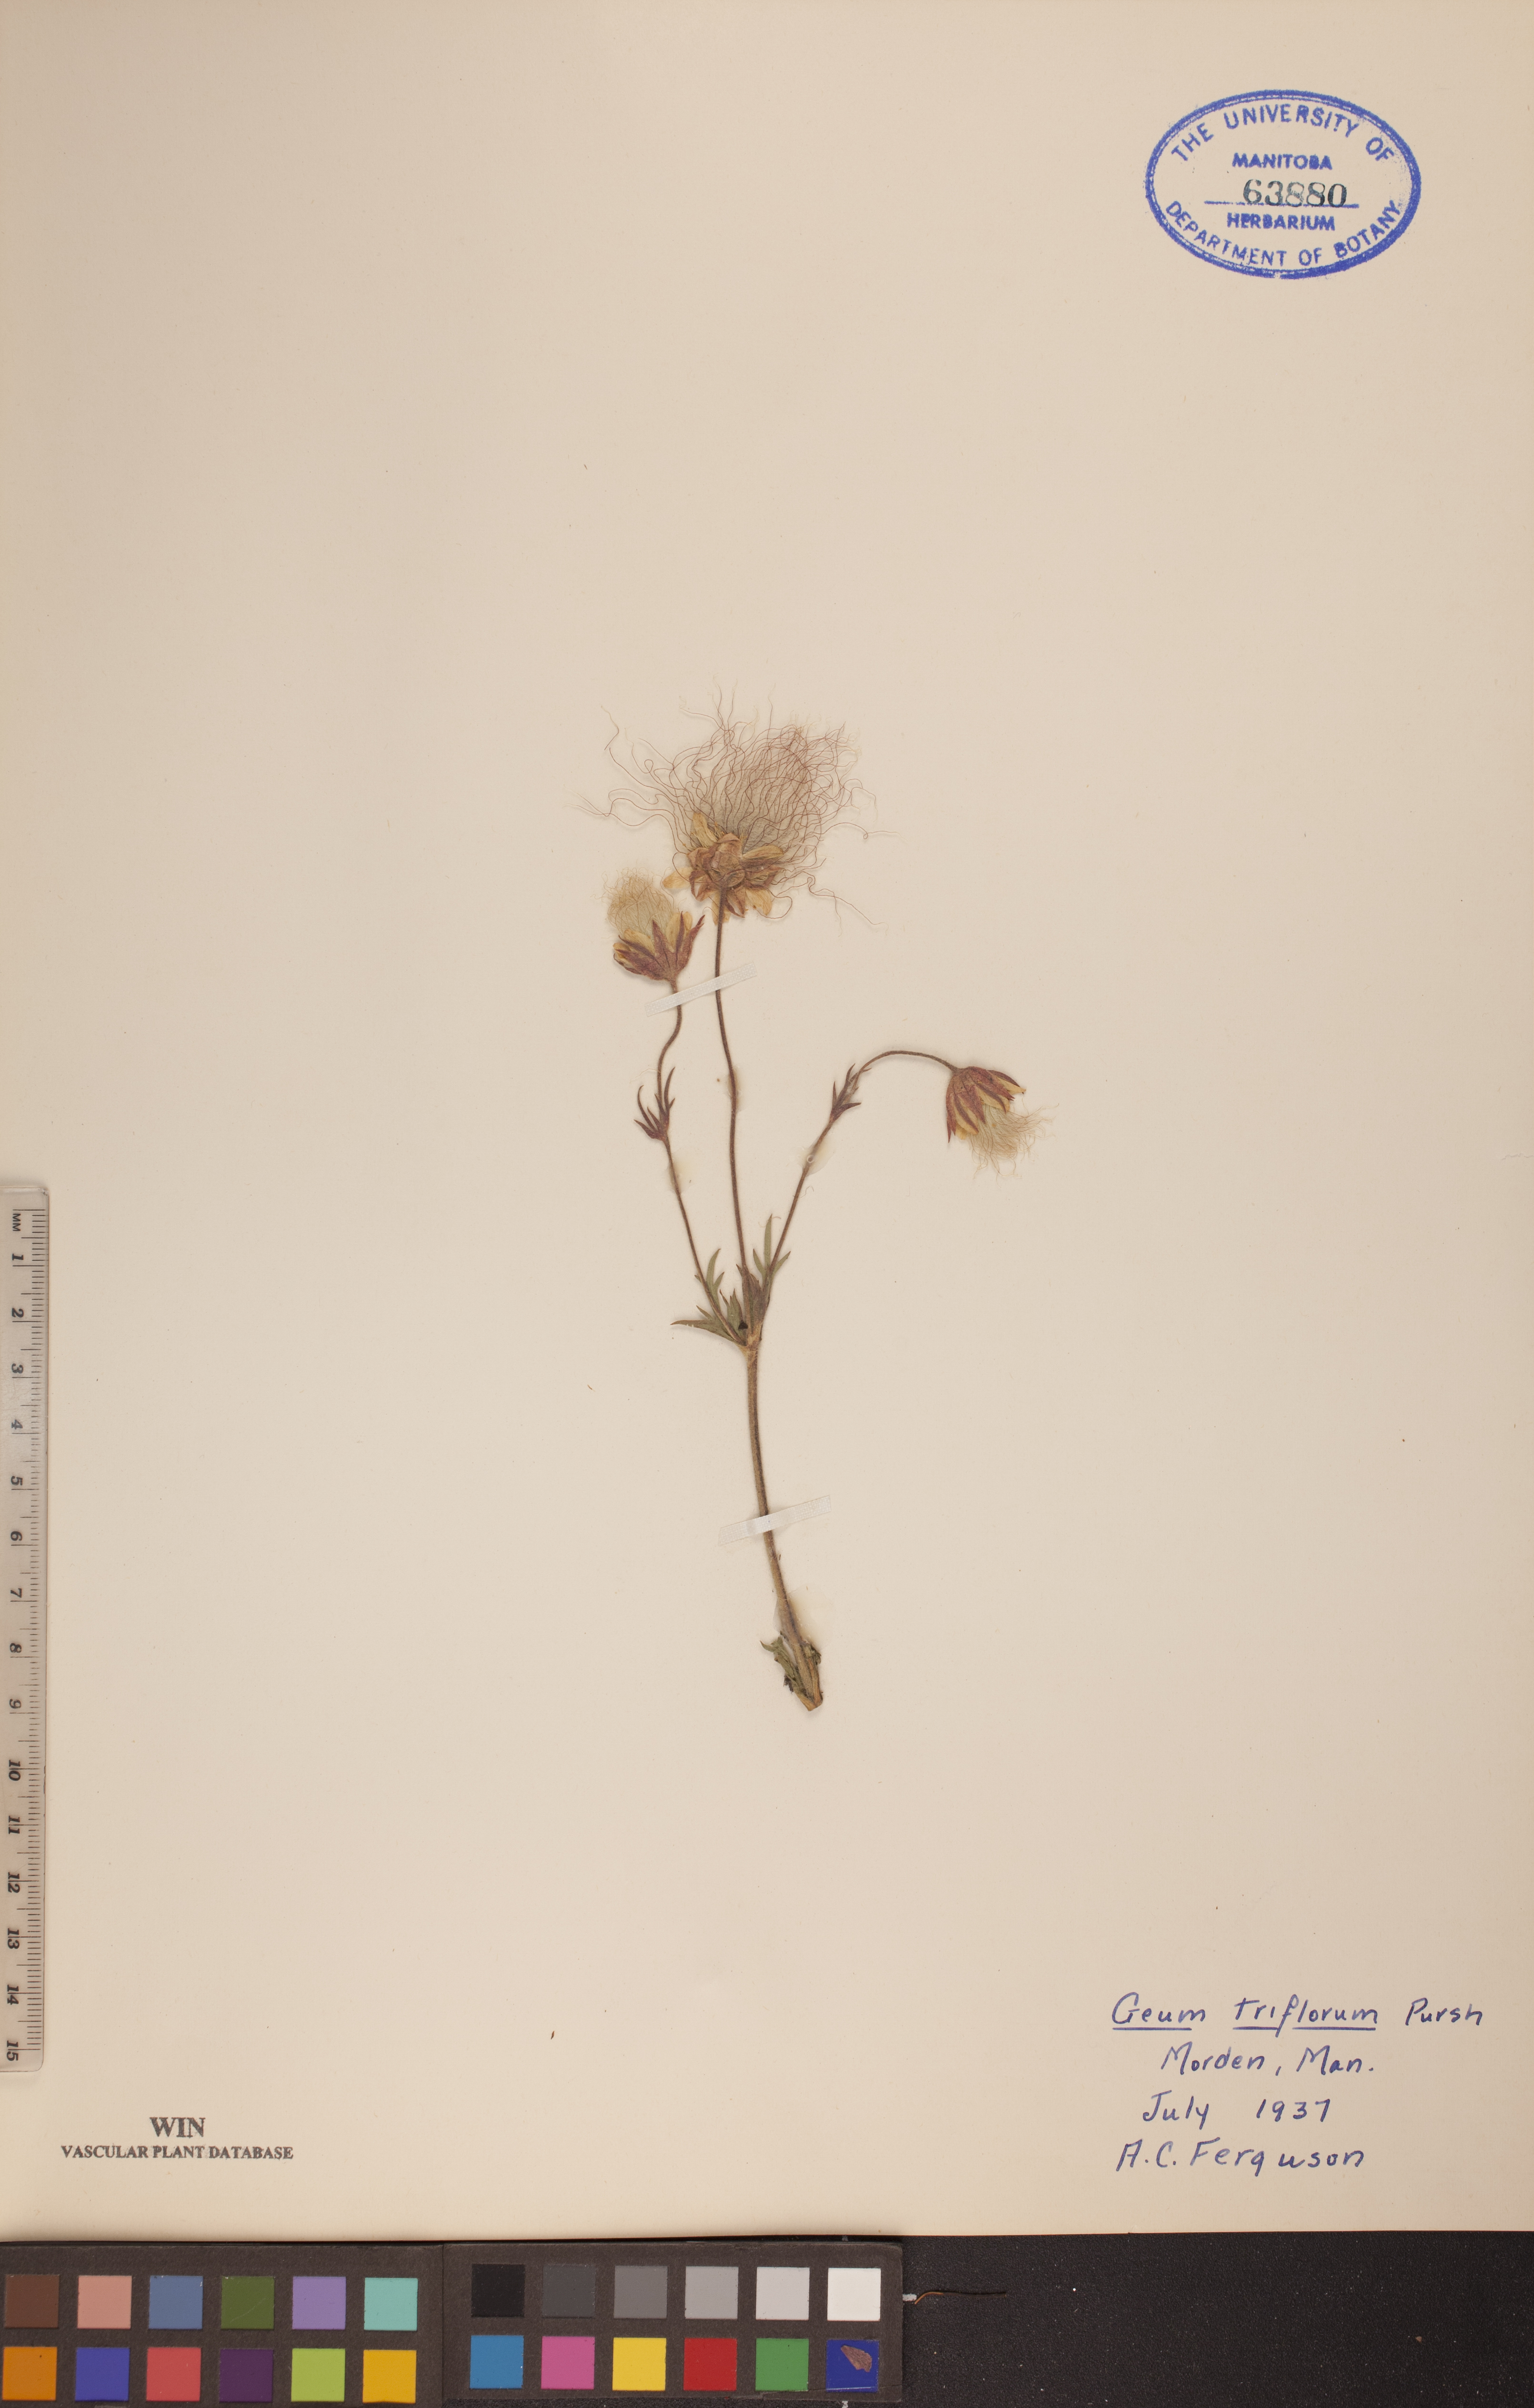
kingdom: Plantae
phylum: Tracheophyta
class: Magnoliopsida
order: Rosales
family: Rosaceae
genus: Geum
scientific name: Geum triflorum
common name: Old man's whiskers
